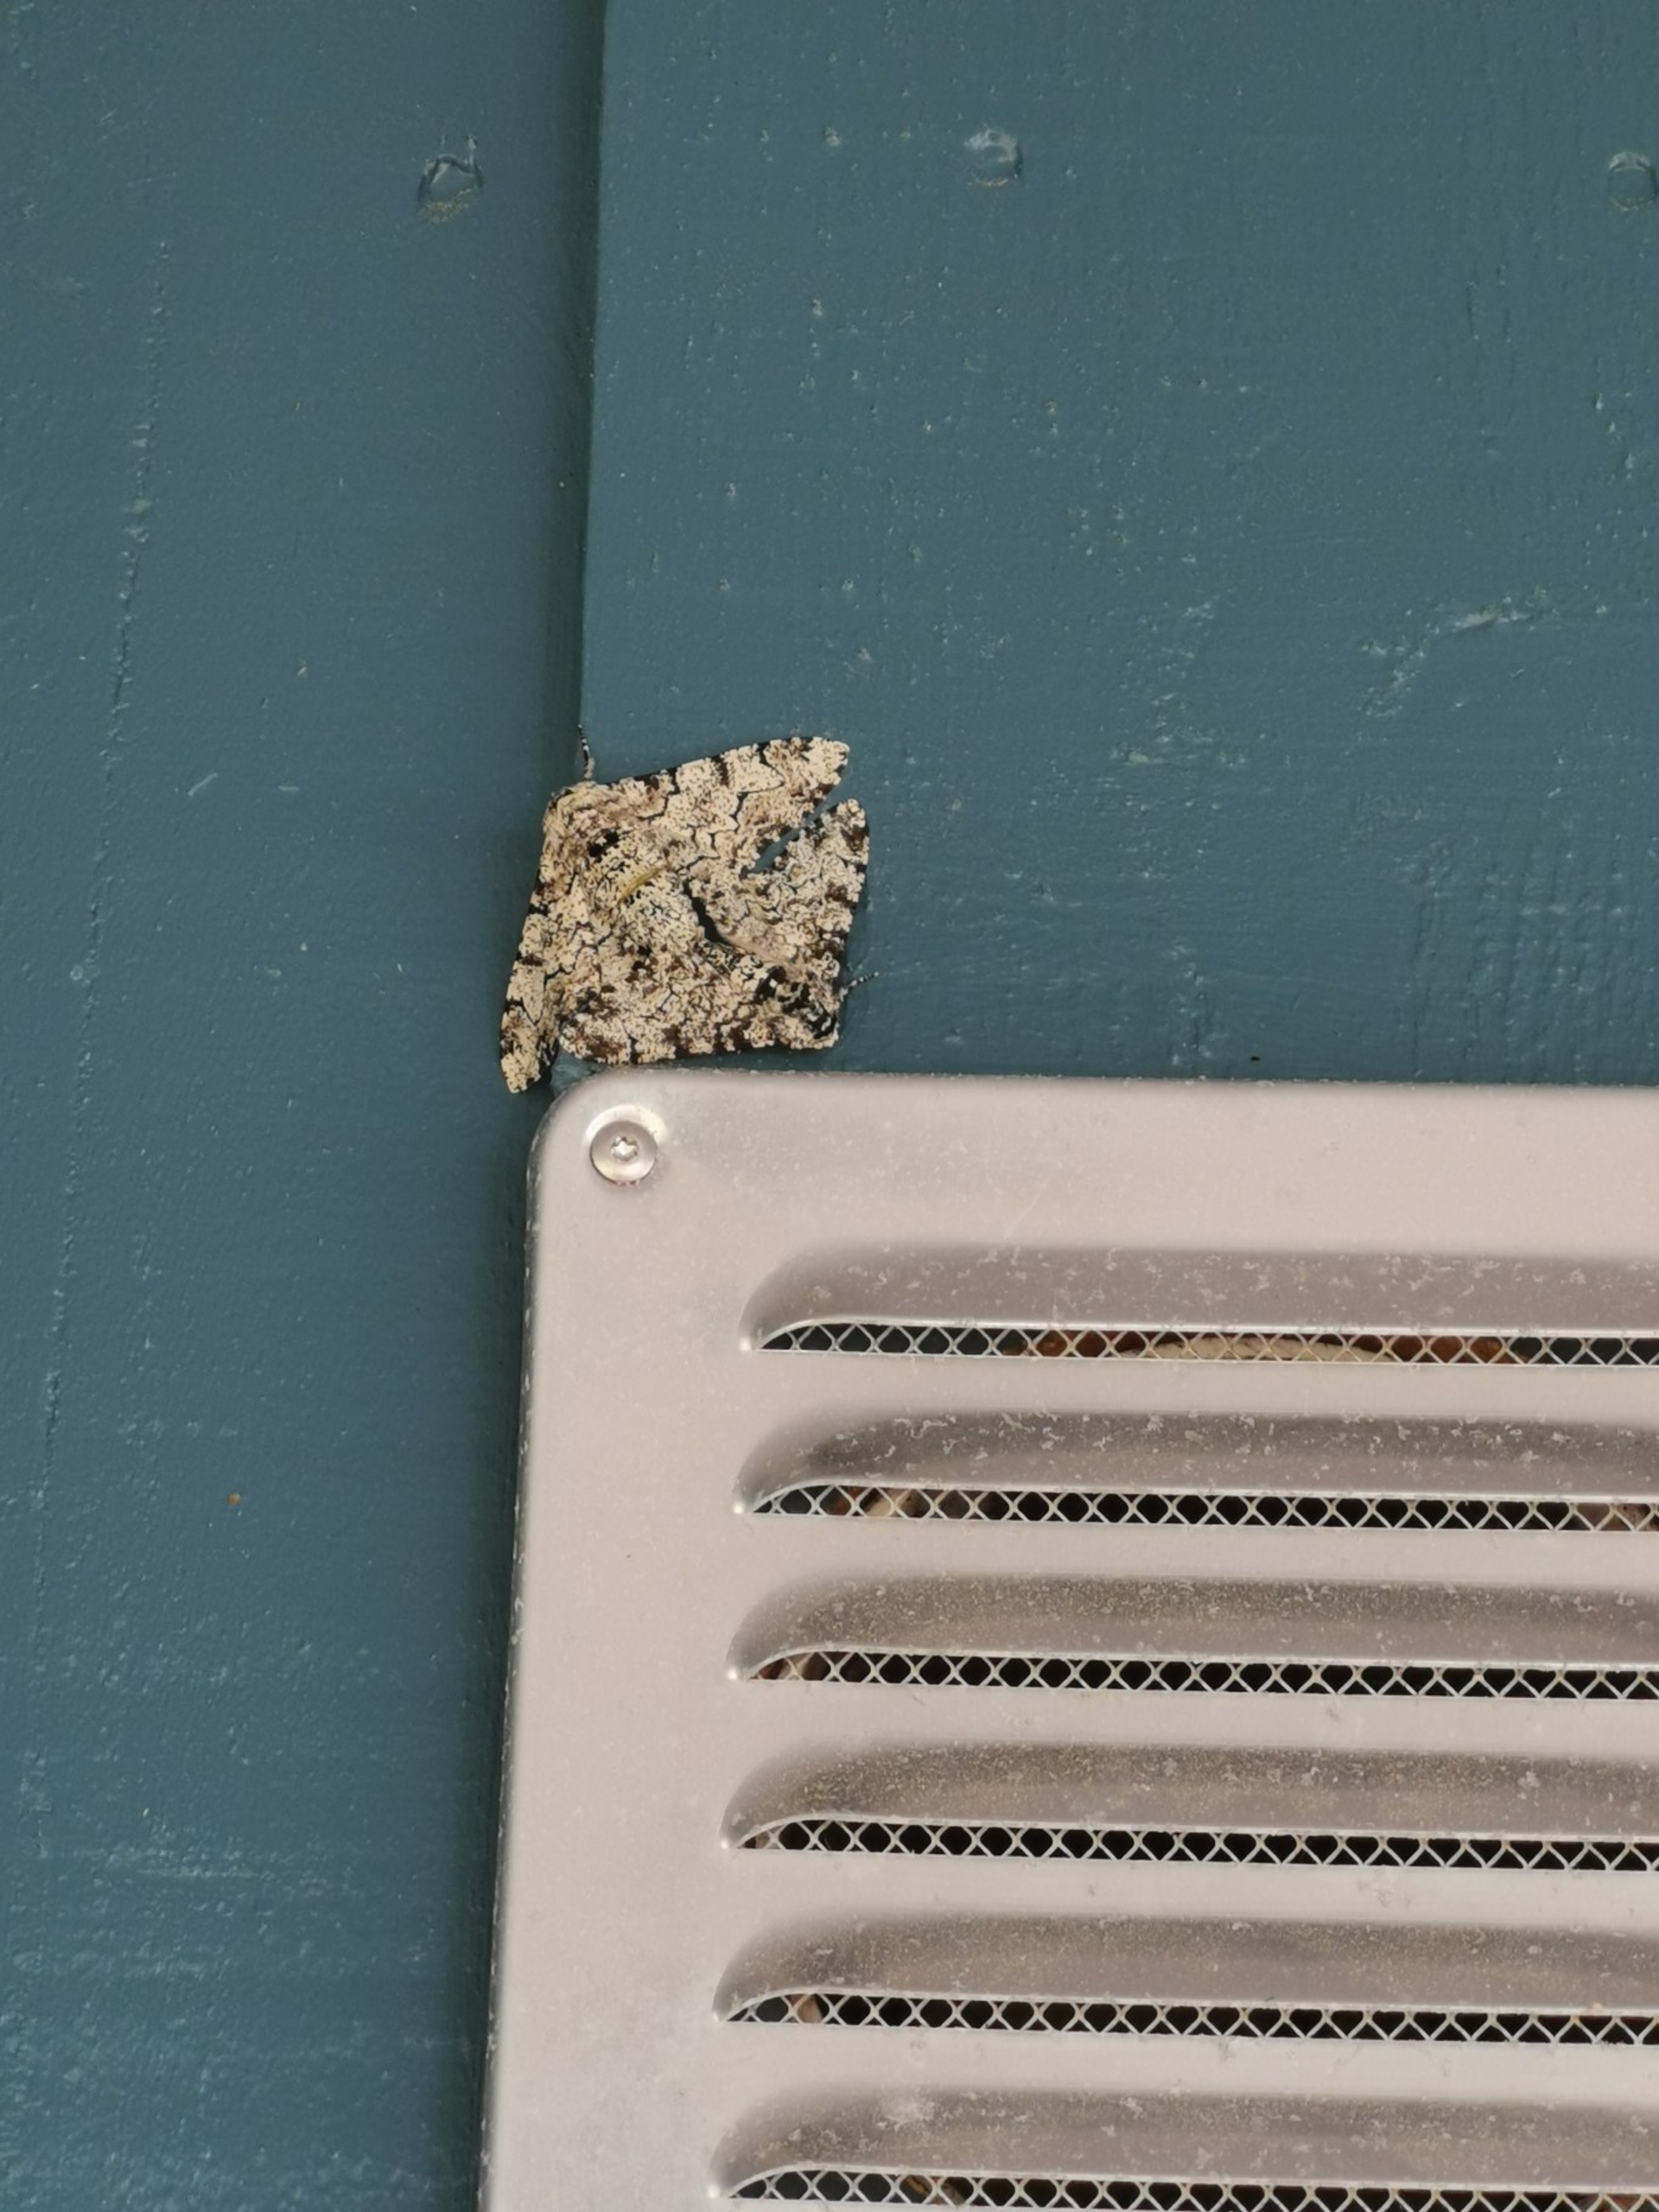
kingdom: Animalia
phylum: Arthropoda
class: Insecta
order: Lepidoptera
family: Geometridae
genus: Biston
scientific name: Biston betularia
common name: Birkemåler
